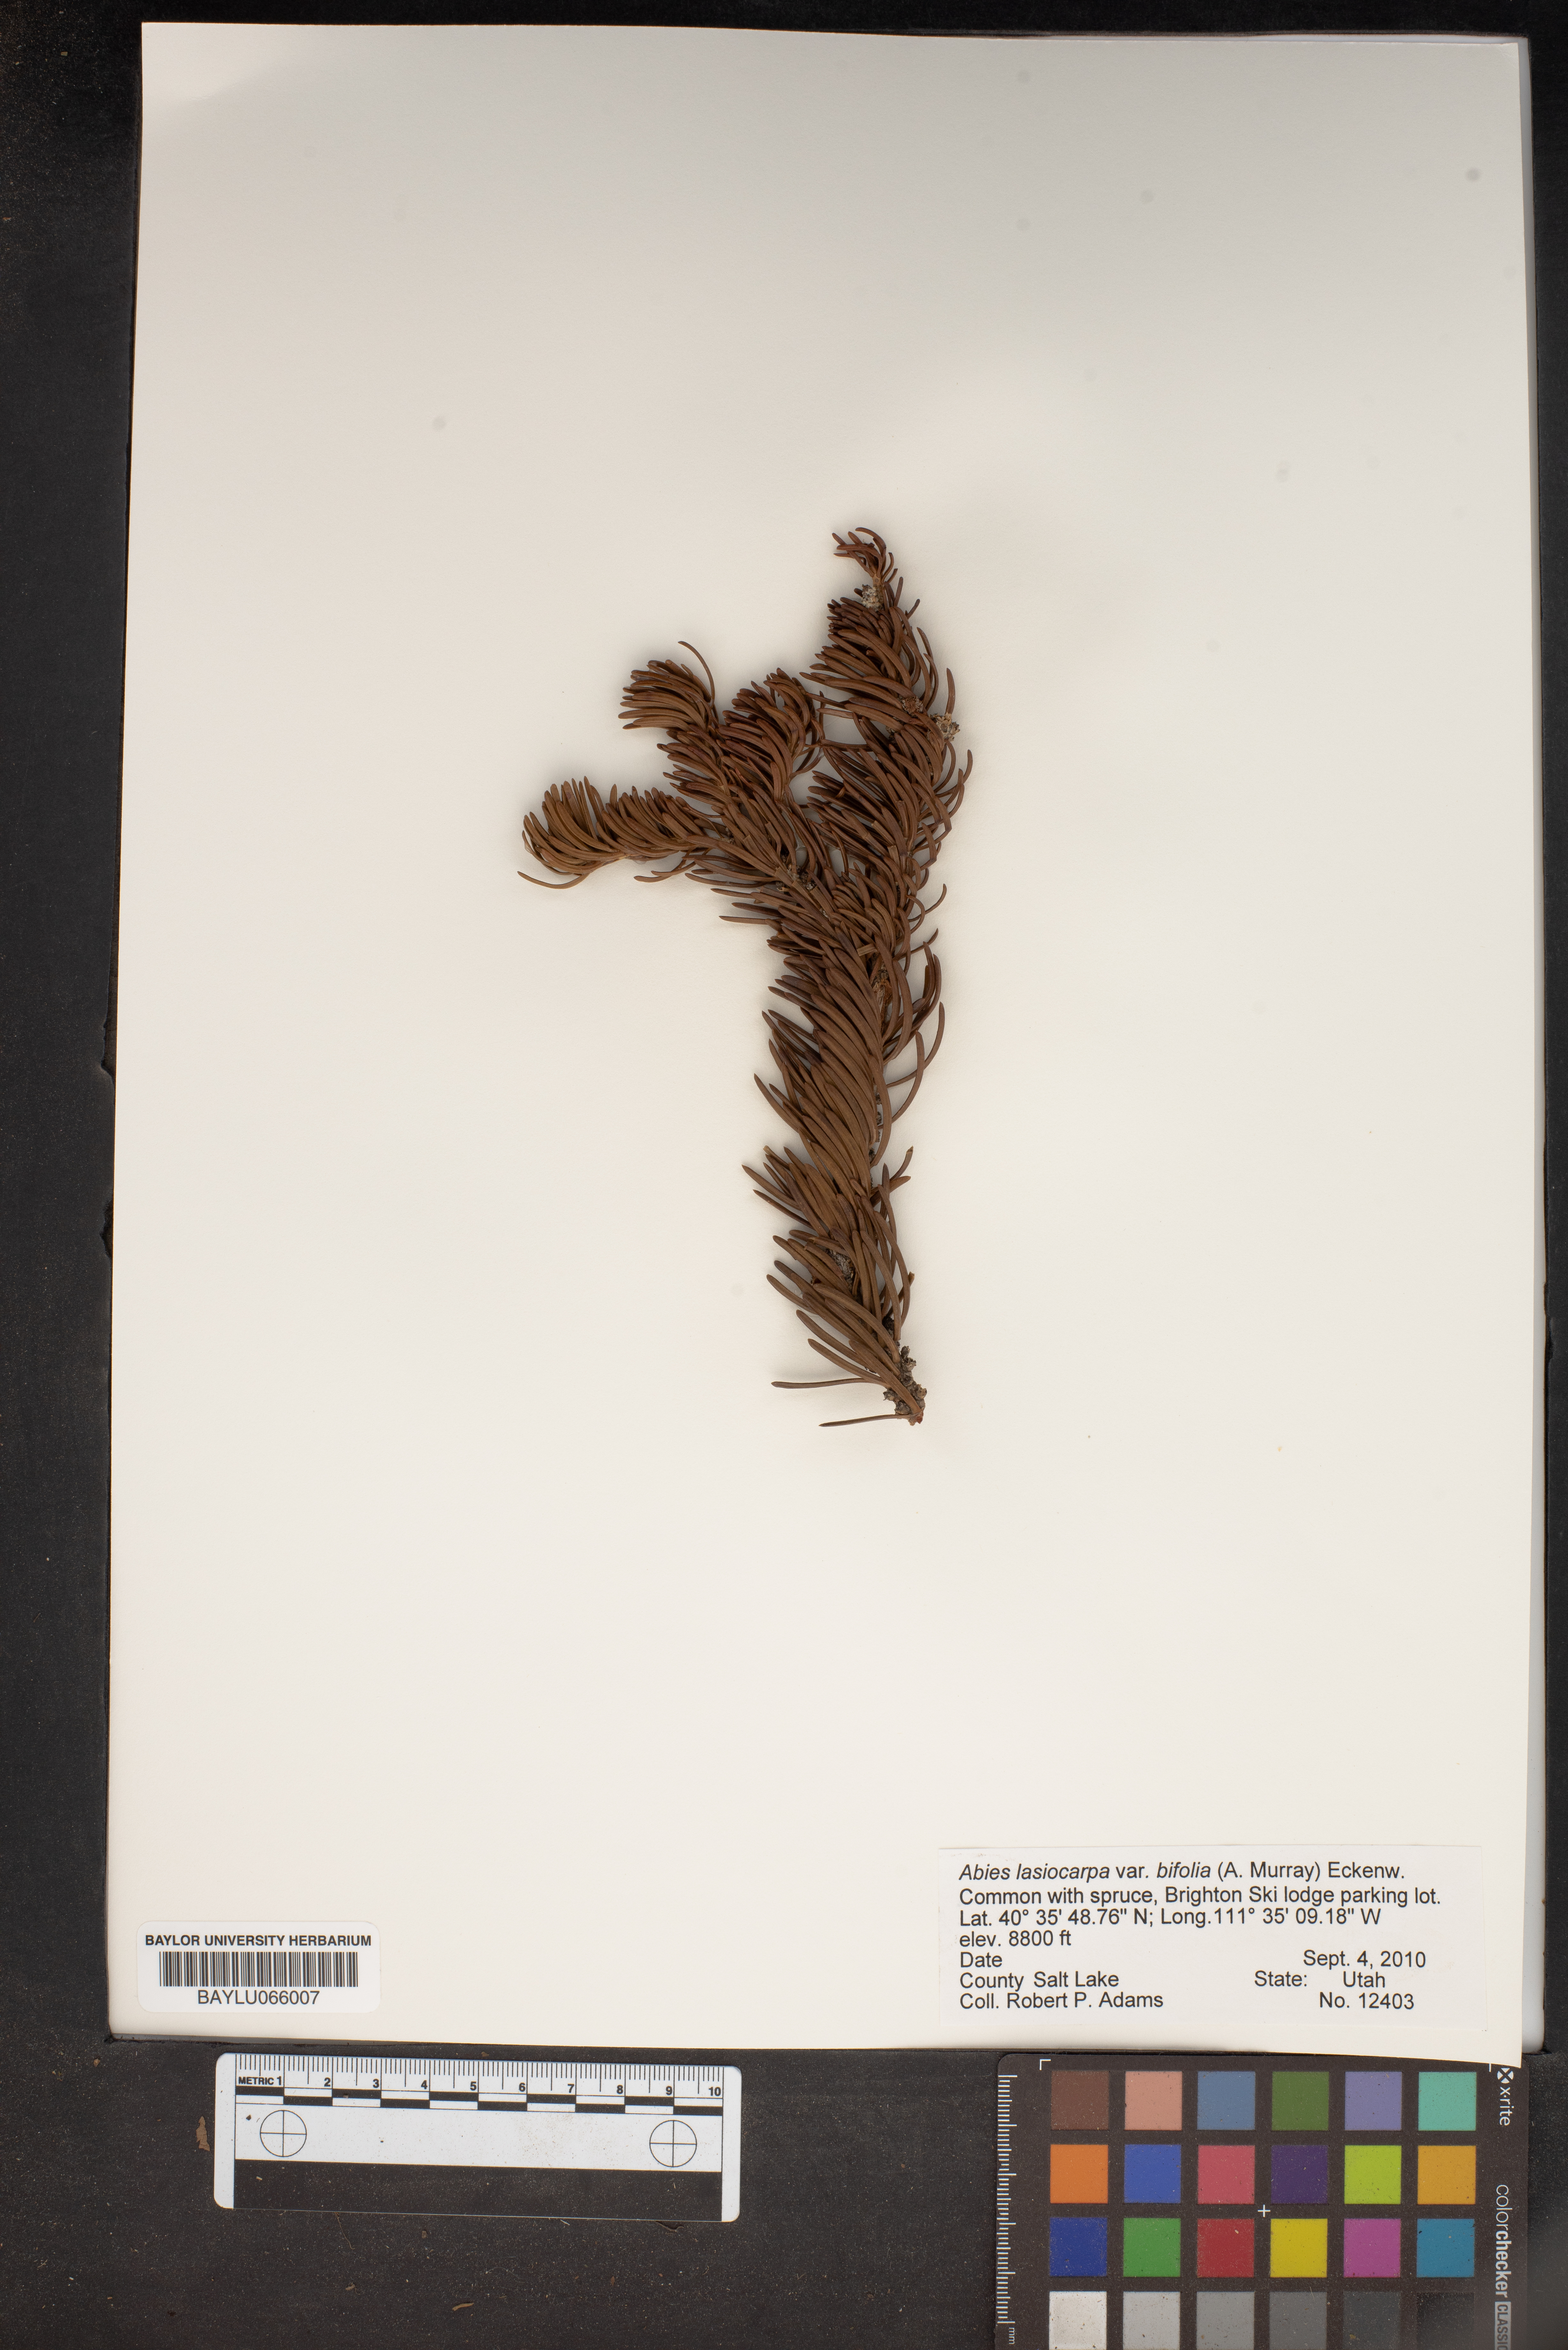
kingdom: Plantae
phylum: Tracheophyta
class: Pinopsida
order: Pinales
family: Pinaceae
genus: Abies
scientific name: Abies lasiocarpa
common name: Subalpine fir
